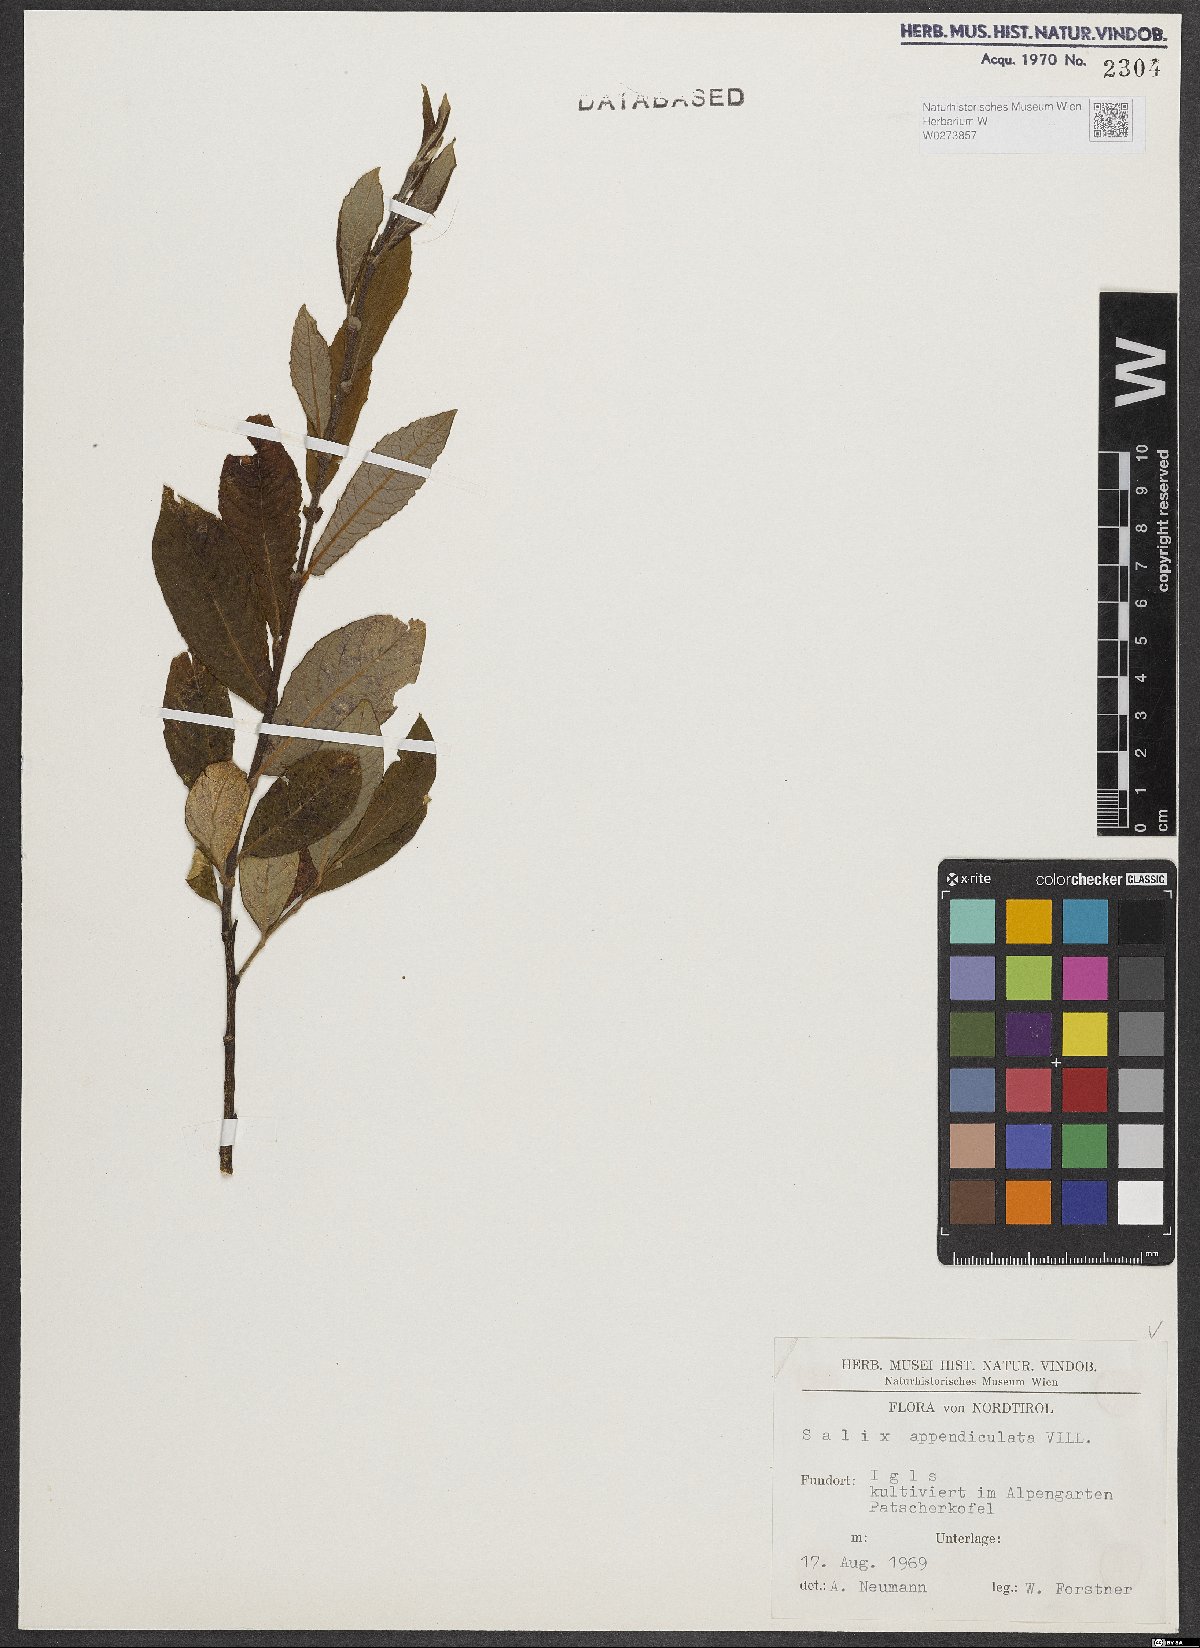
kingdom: Plantae
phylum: Tracheophyta
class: Magnoliopsida
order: Malpighiales
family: Salicaceae
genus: Salix
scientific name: Salix appendiculata
